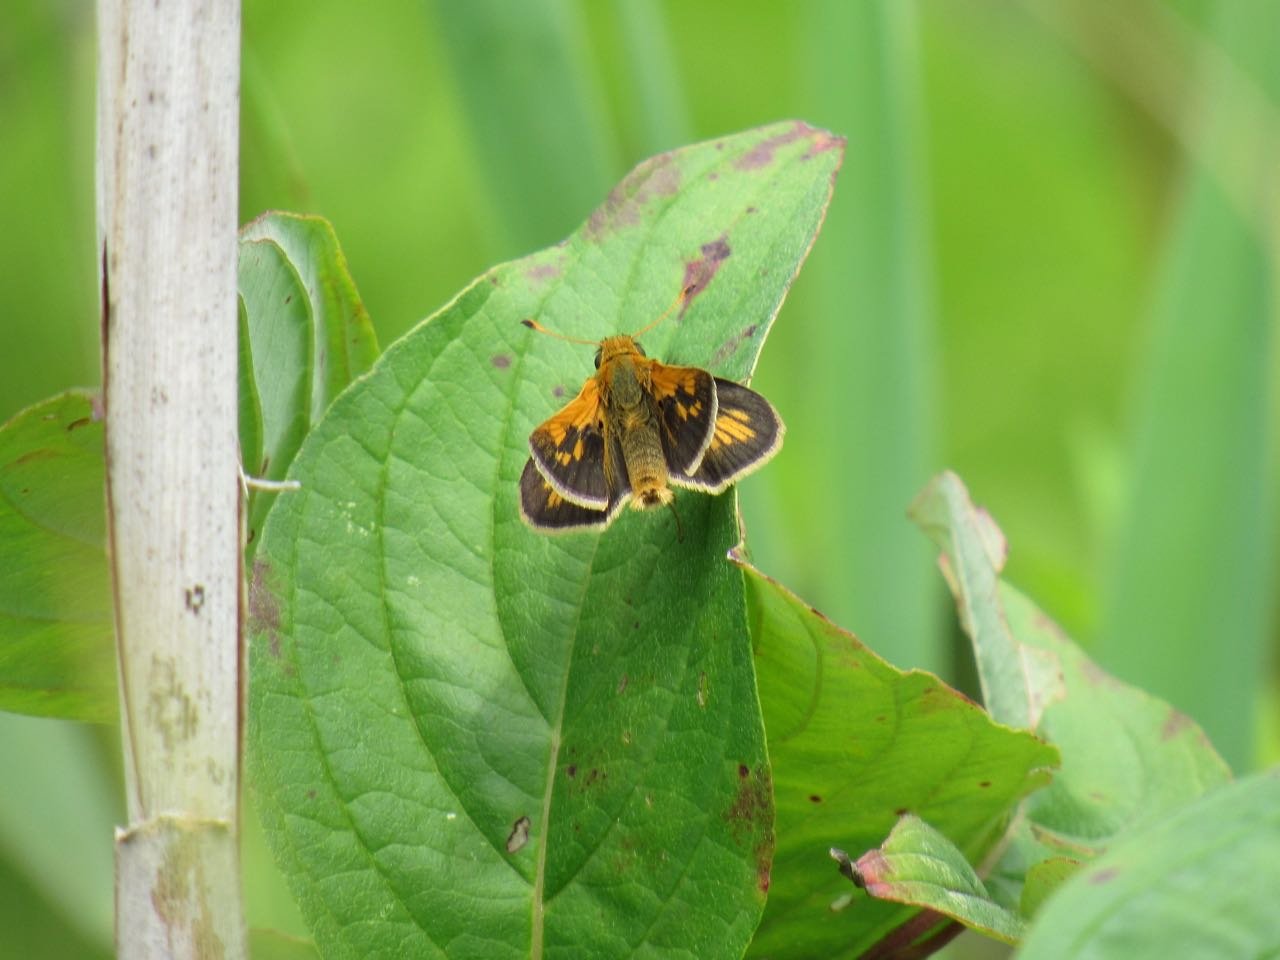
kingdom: Animalia
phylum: Arthropoda
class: Insecta
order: Lepidoptera
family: Hesperiidae
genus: Polites
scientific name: Polites coras
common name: Peck's Skipper
